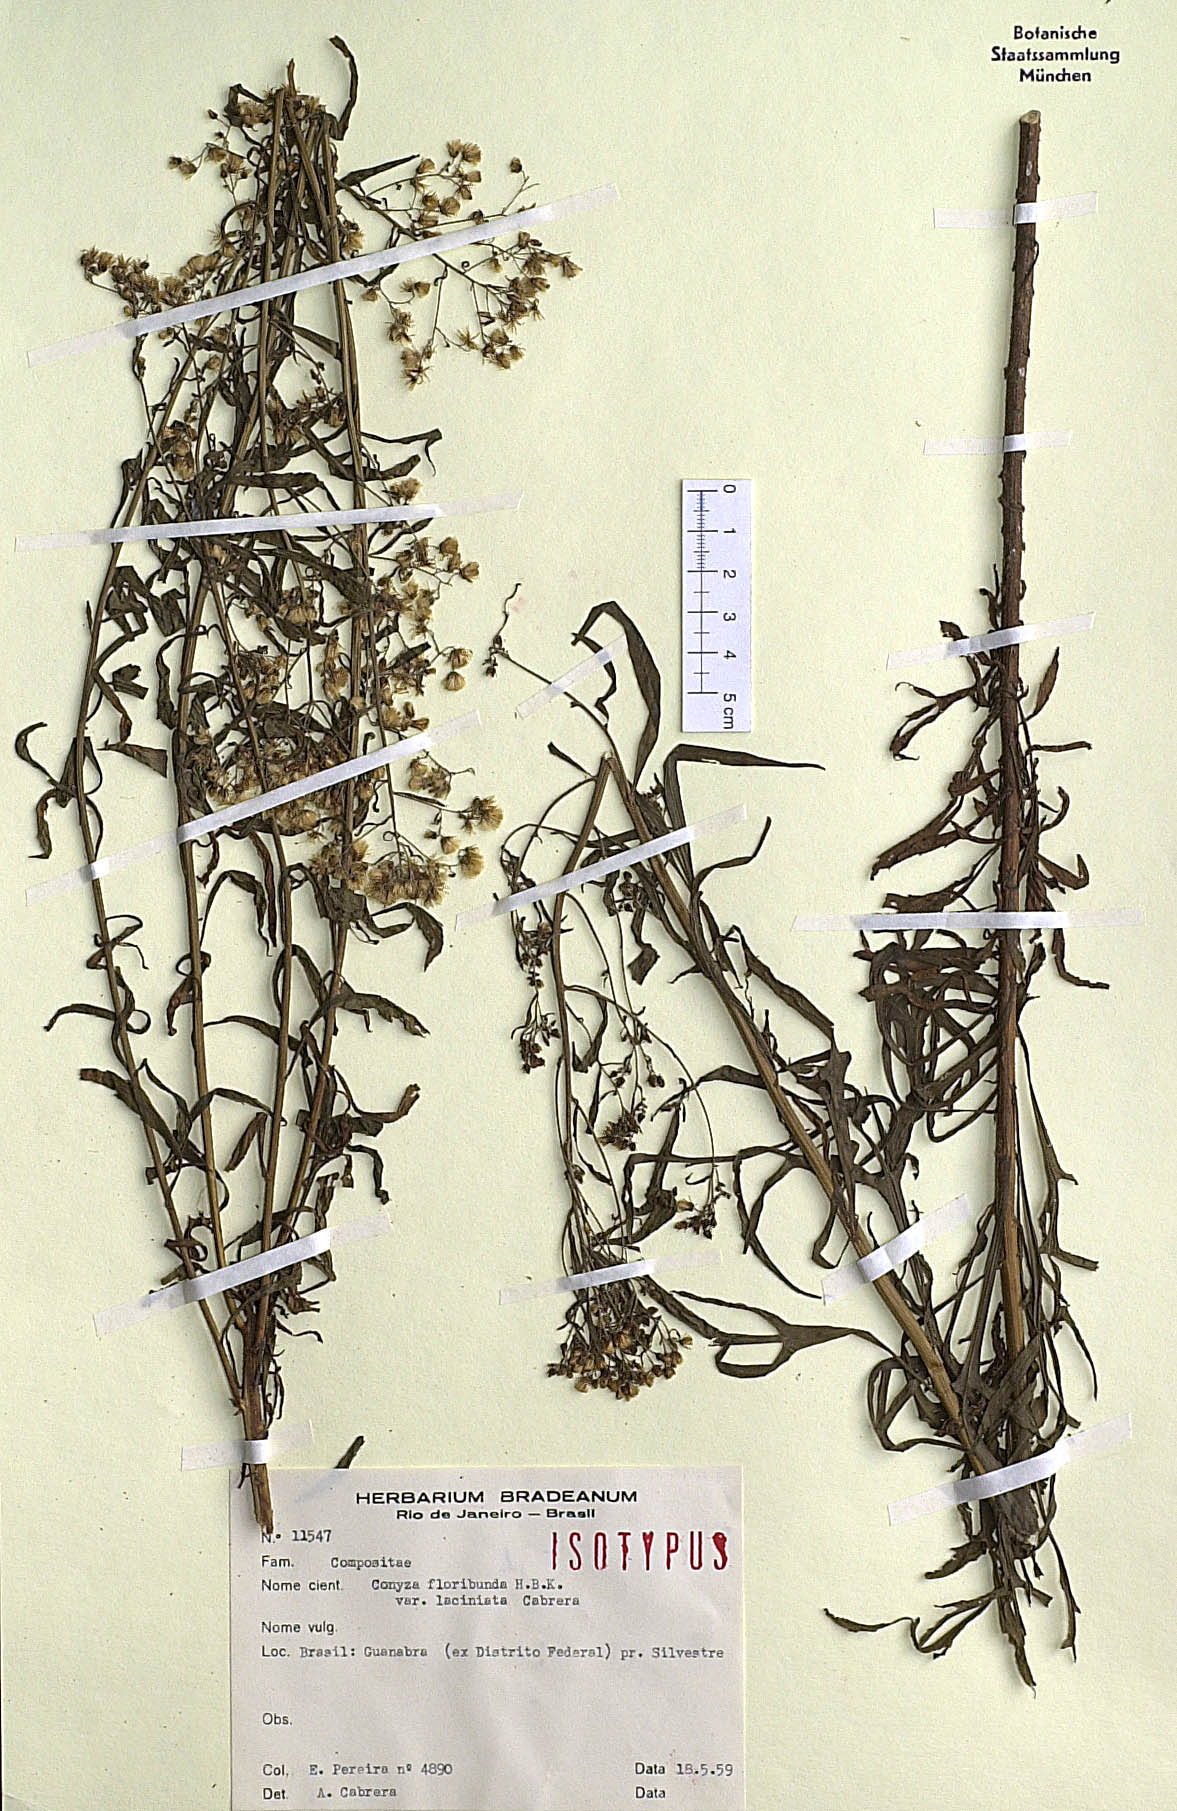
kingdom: Plantae
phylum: Tracheophyta
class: Magnoliopsida
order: Asterales
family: Asteraceae
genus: Erigeron
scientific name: Erigeron floribundus
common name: Bilbao fleabane
